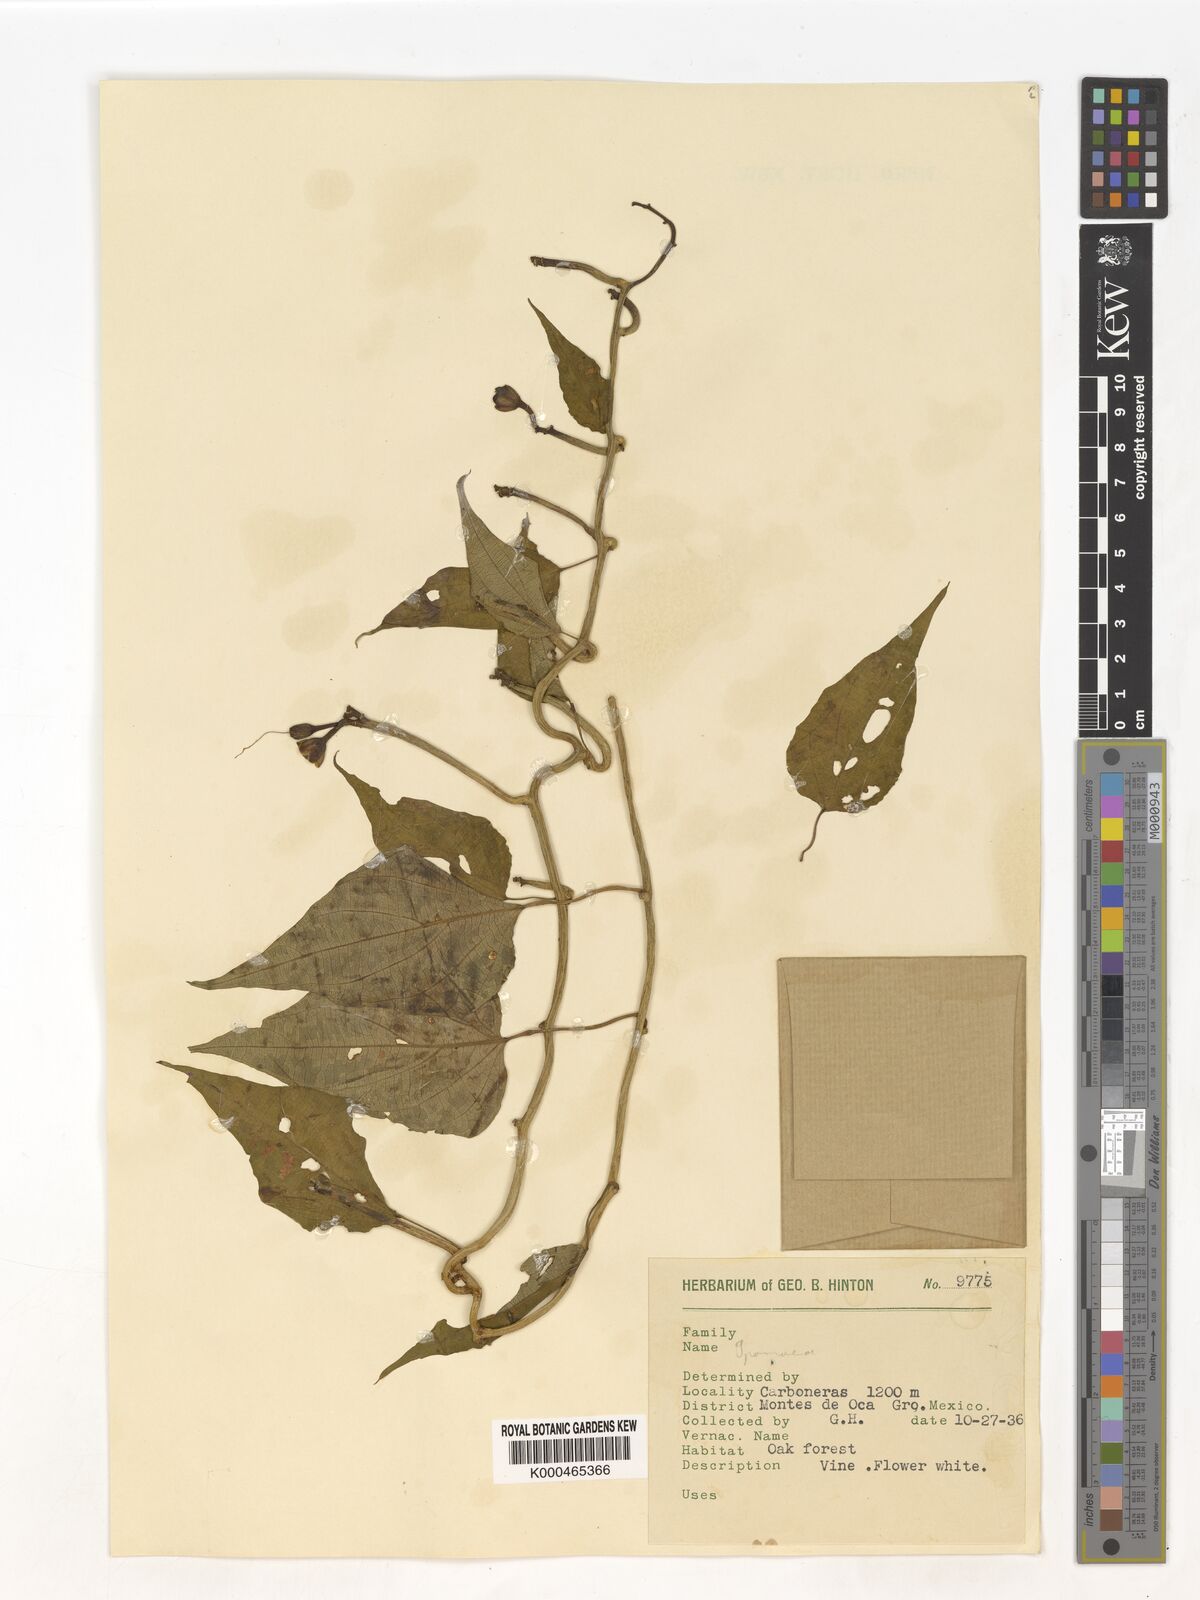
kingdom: Plantae
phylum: Tracheophyta
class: Magnoliopsida
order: Solanales
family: Convolvulaceae
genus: Ipomoea
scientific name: Ipomoea
